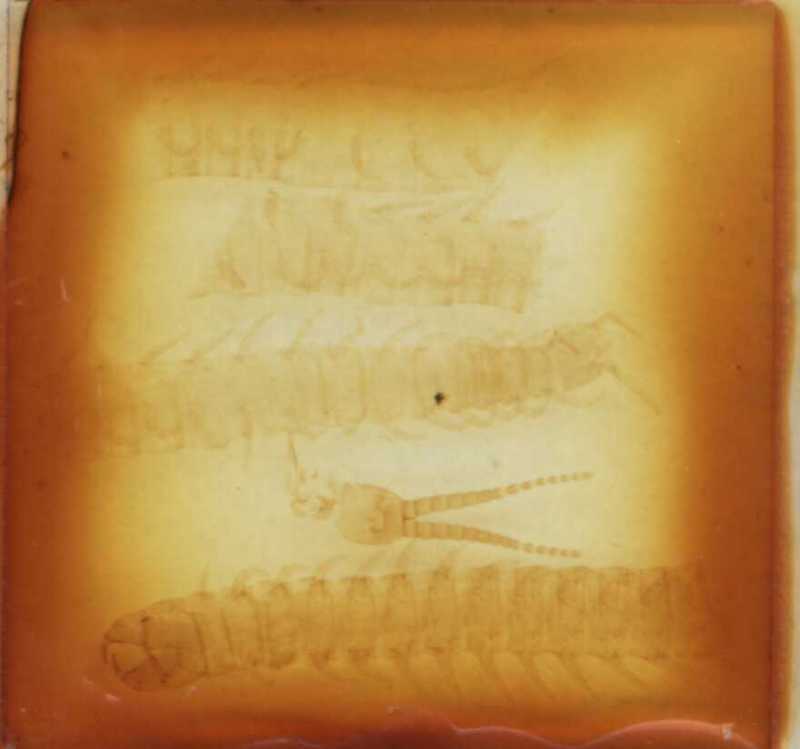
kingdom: Animalia
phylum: Arthropoda
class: Chilopoda
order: Geophilomorpha
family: Geophilidae
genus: Tasmanophilus
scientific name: Tasmanophilus opinatus
